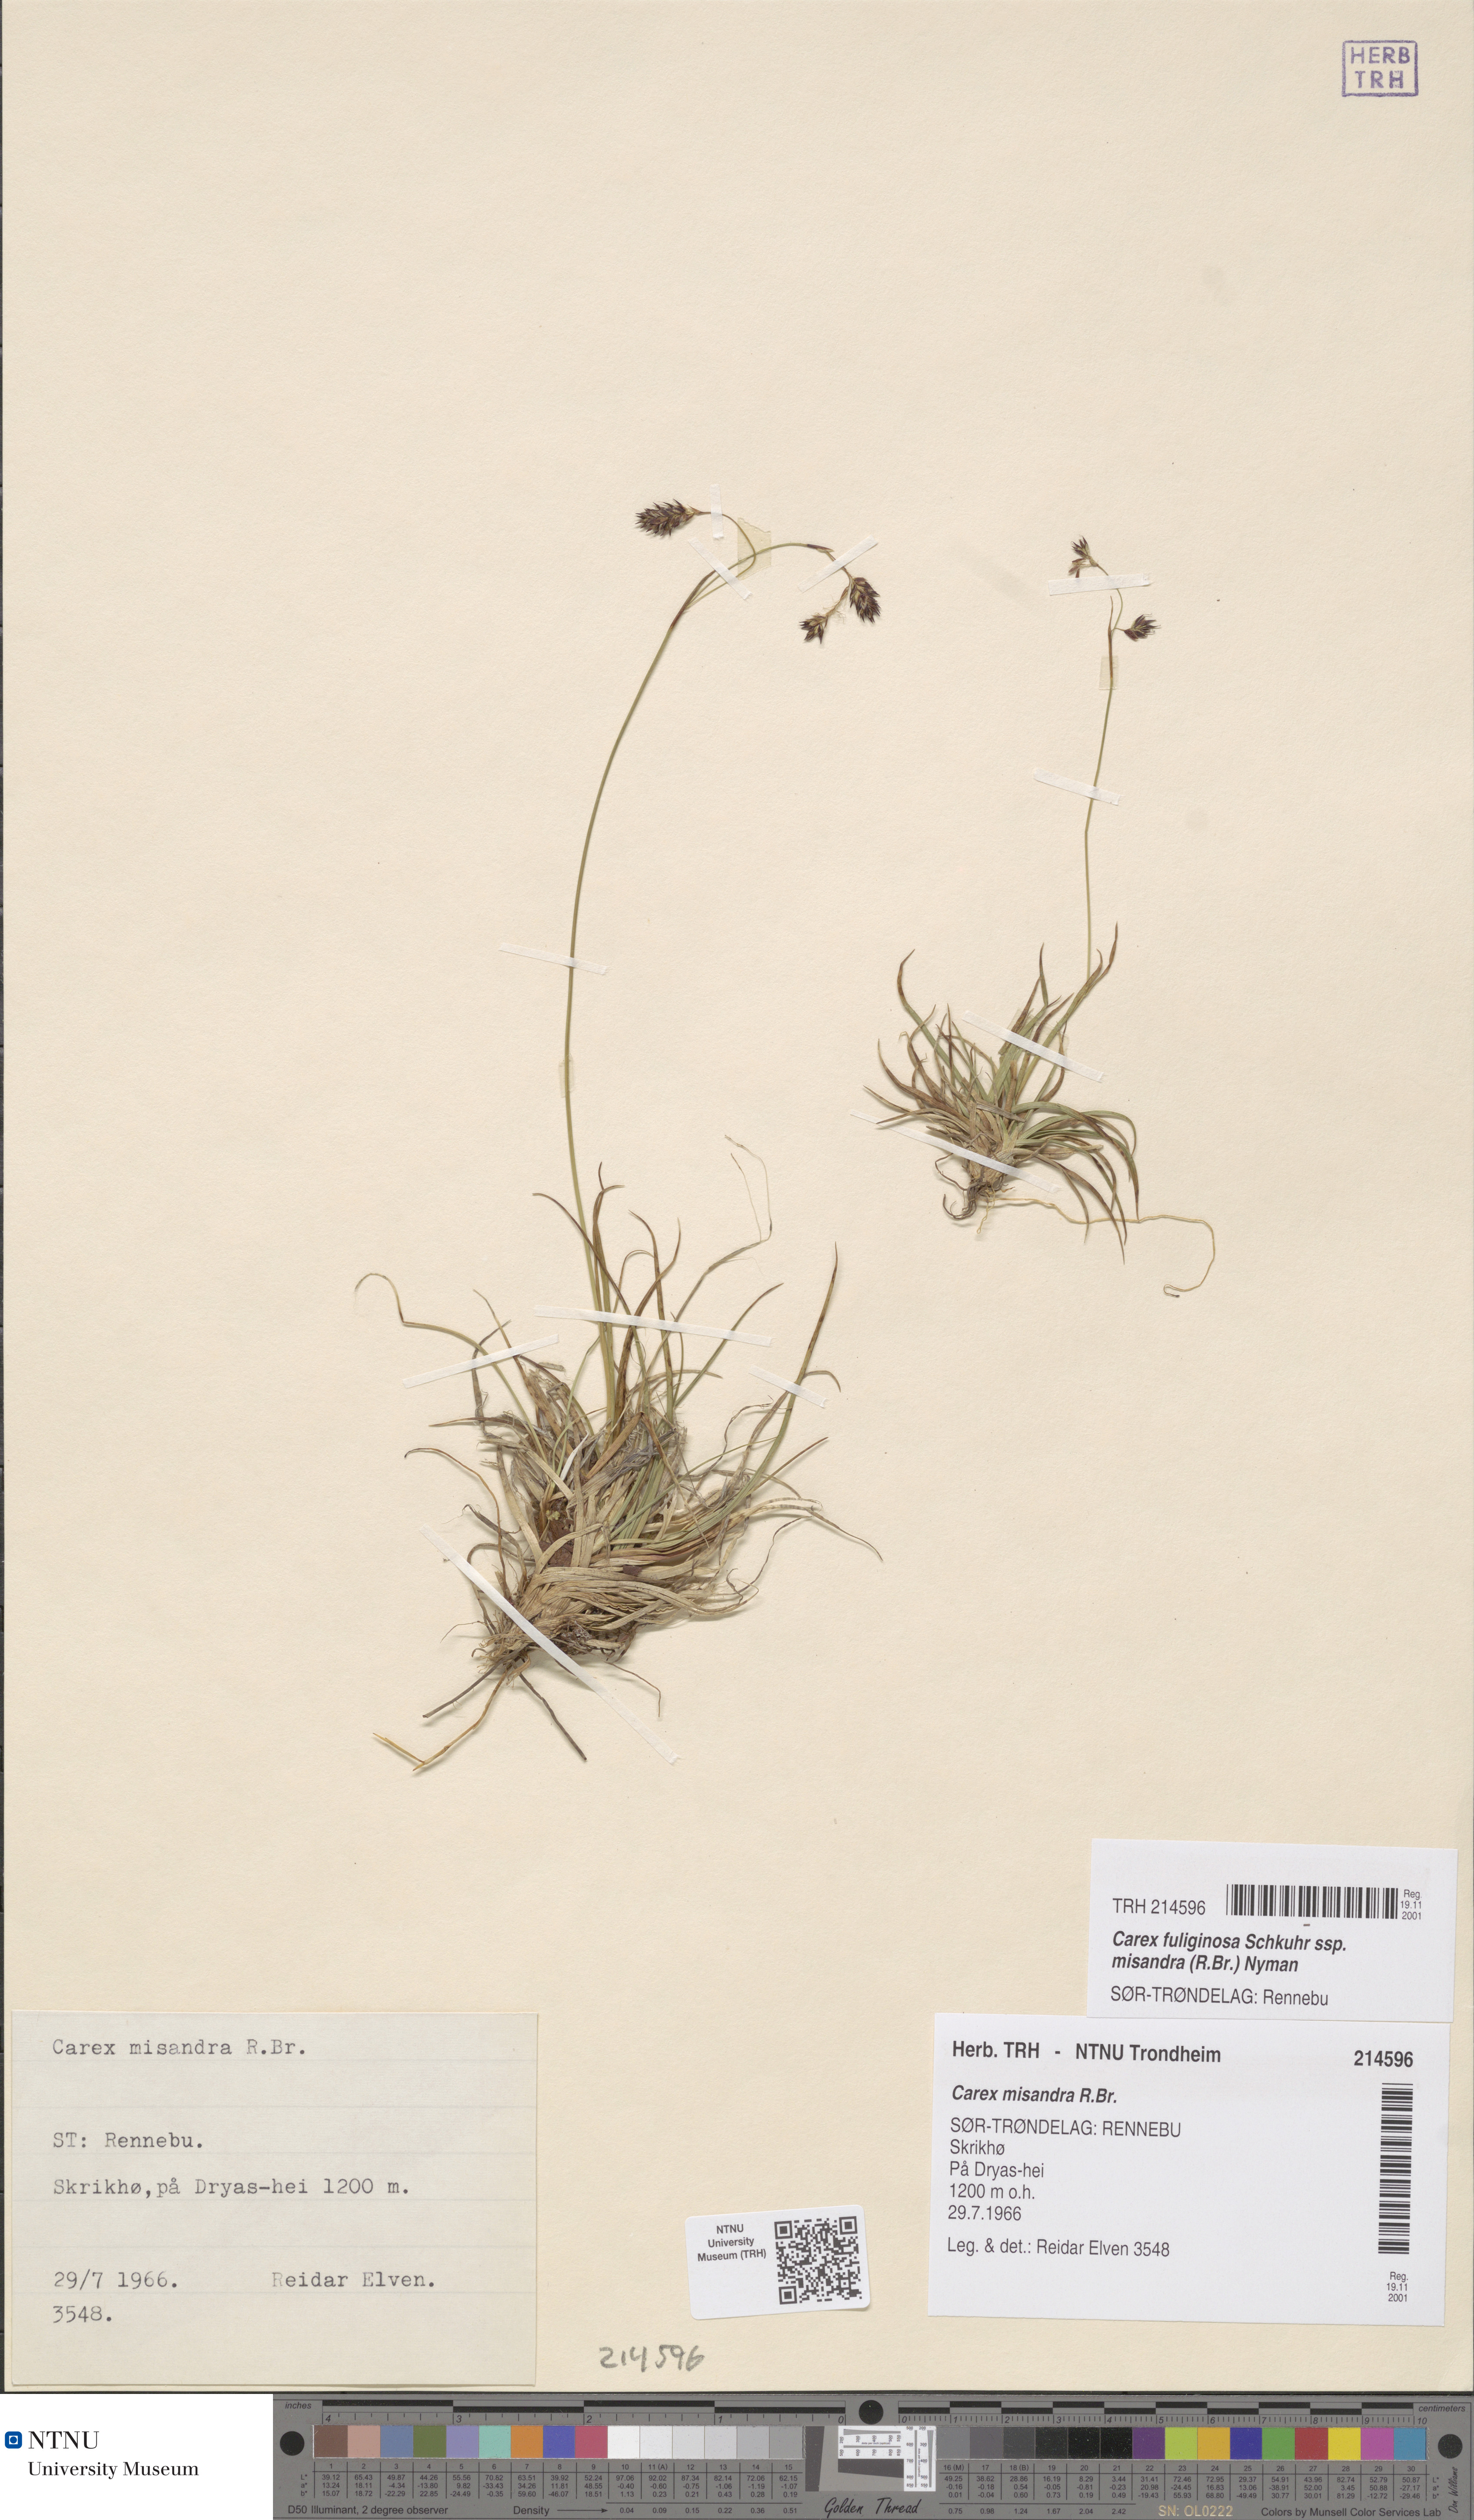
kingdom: Plantae
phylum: Tracheophyta
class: Liliopsida
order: Poales
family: Cyperaceae
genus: Carex
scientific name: Carex fuliginosa
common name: Few-flowered sedge
